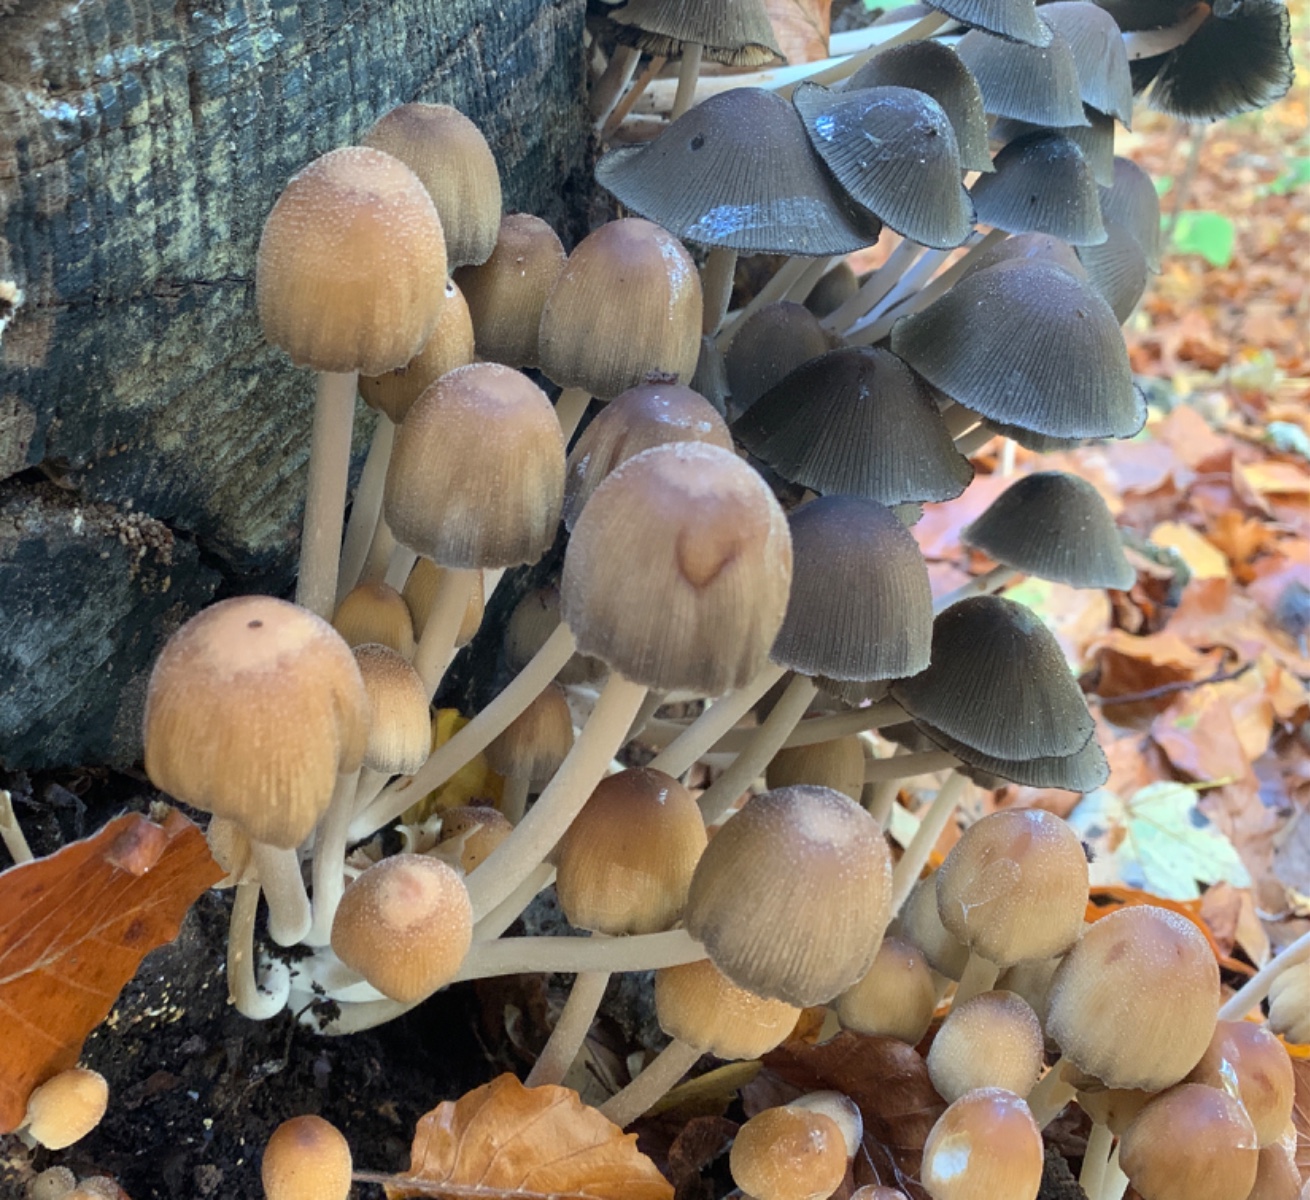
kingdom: Fungi
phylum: Basidiomycota
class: Agaricomycetes
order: Agaricales
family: Psathyrellaceae
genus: Coprinellus
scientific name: Coprinellus micaceus
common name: glimmer-blækhat
